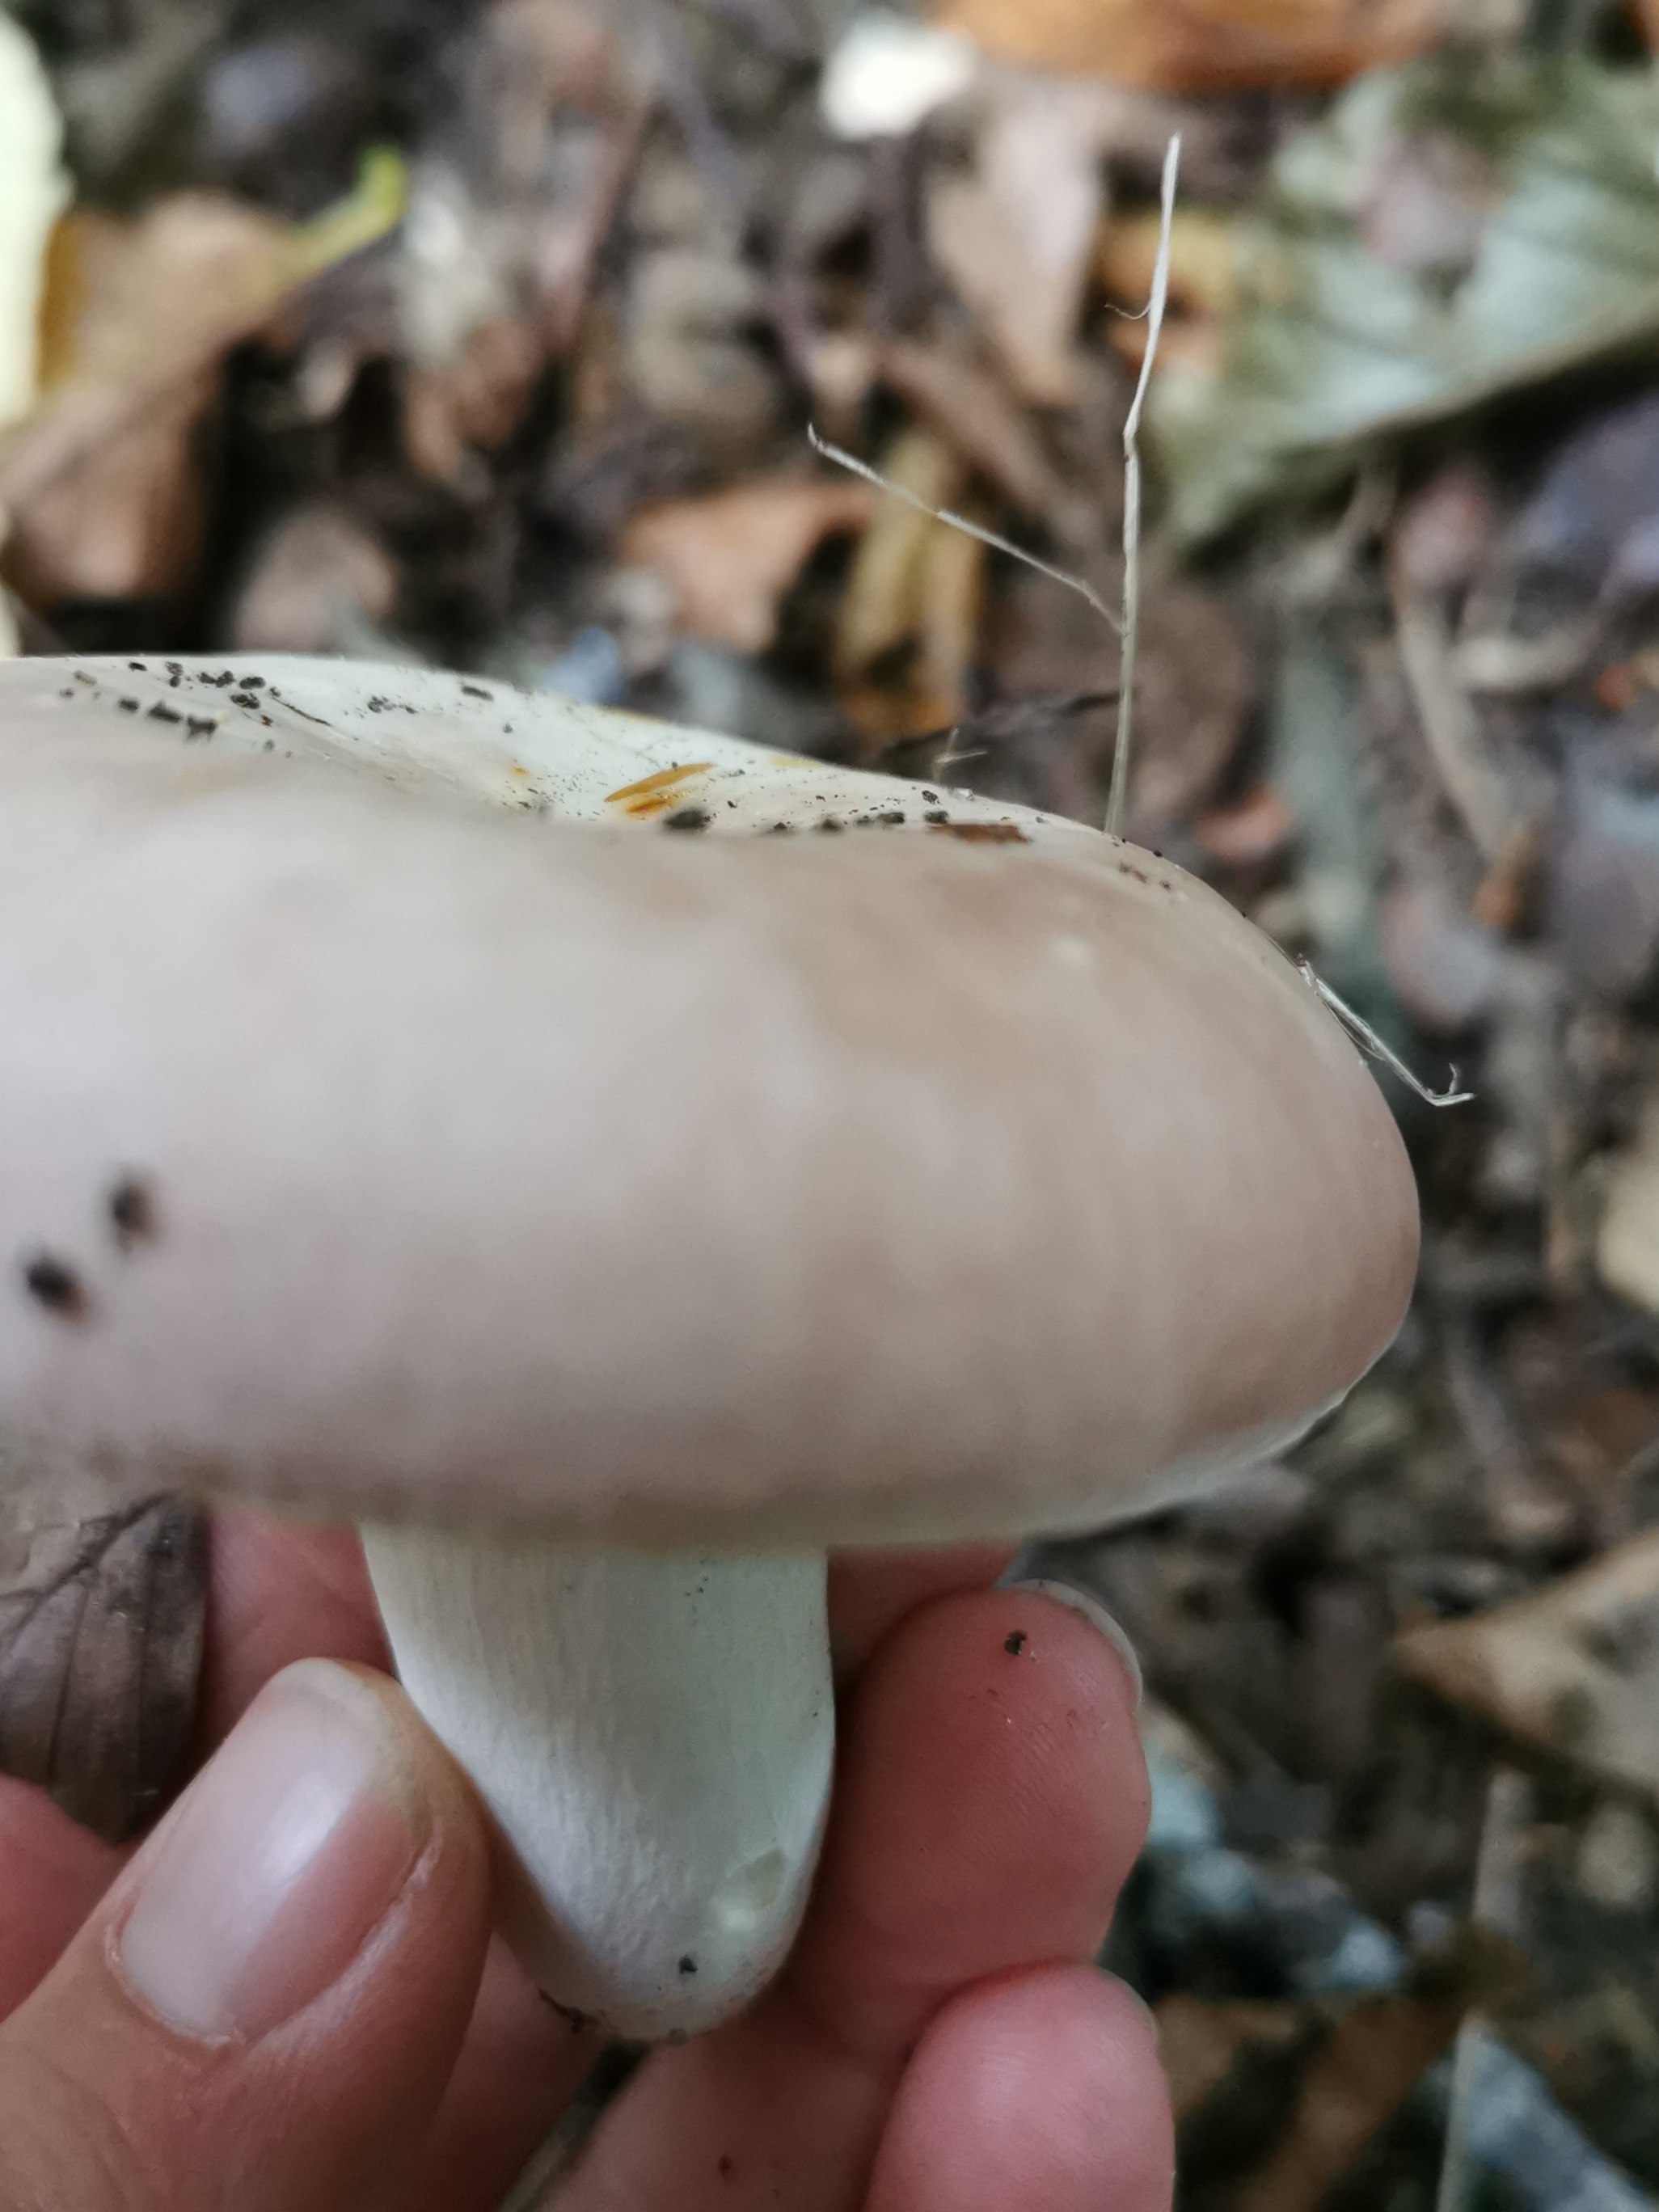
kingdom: Fungi
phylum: Basidiomycota
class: Agaricomycetes
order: Russulales
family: Russulaceae
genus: Russula
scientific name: Russula vesca
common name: spiselig skørhat
